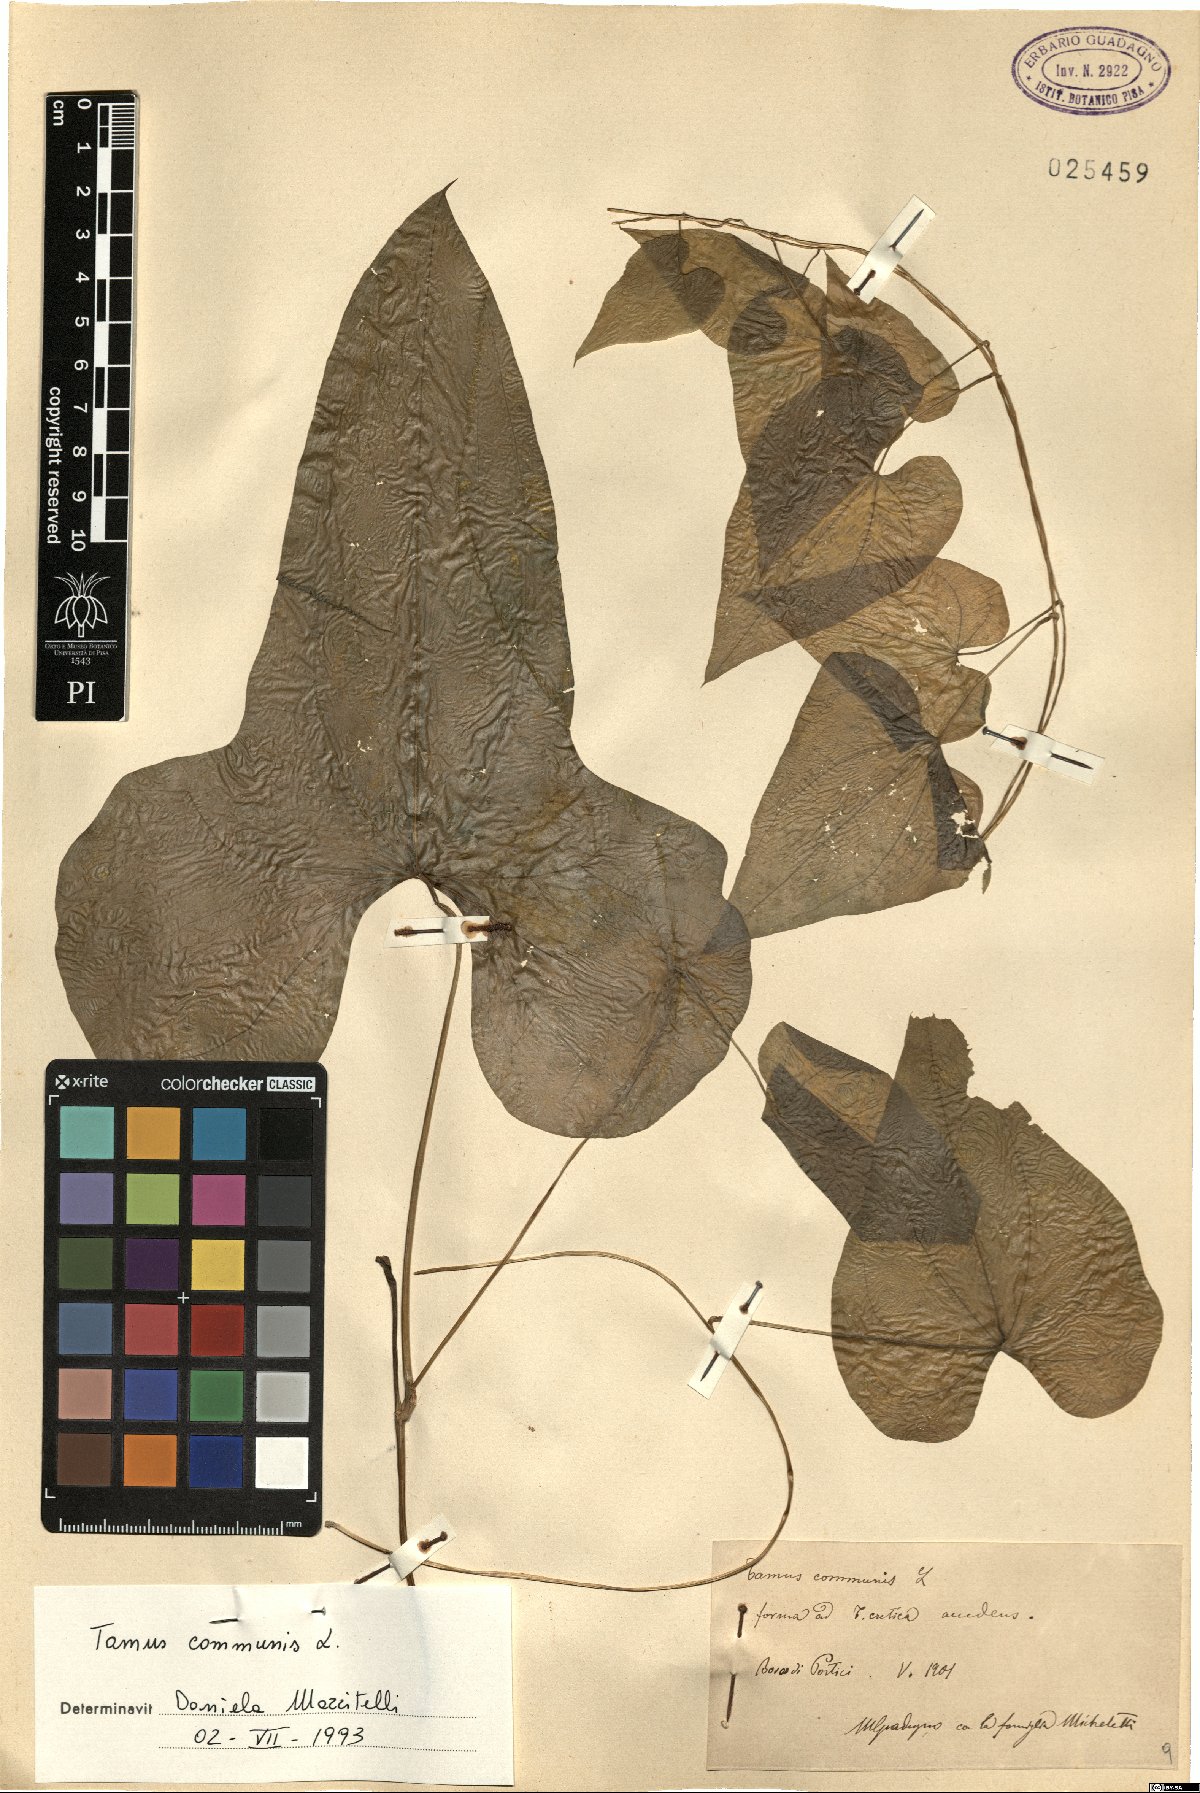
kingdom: Plantae
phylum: Tracheophyta
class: Liliopsida
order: Dioscoreales
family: Dioscoreaceae
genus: Dioscorea
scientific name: Dioscorea communis
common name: Black-bindweed
